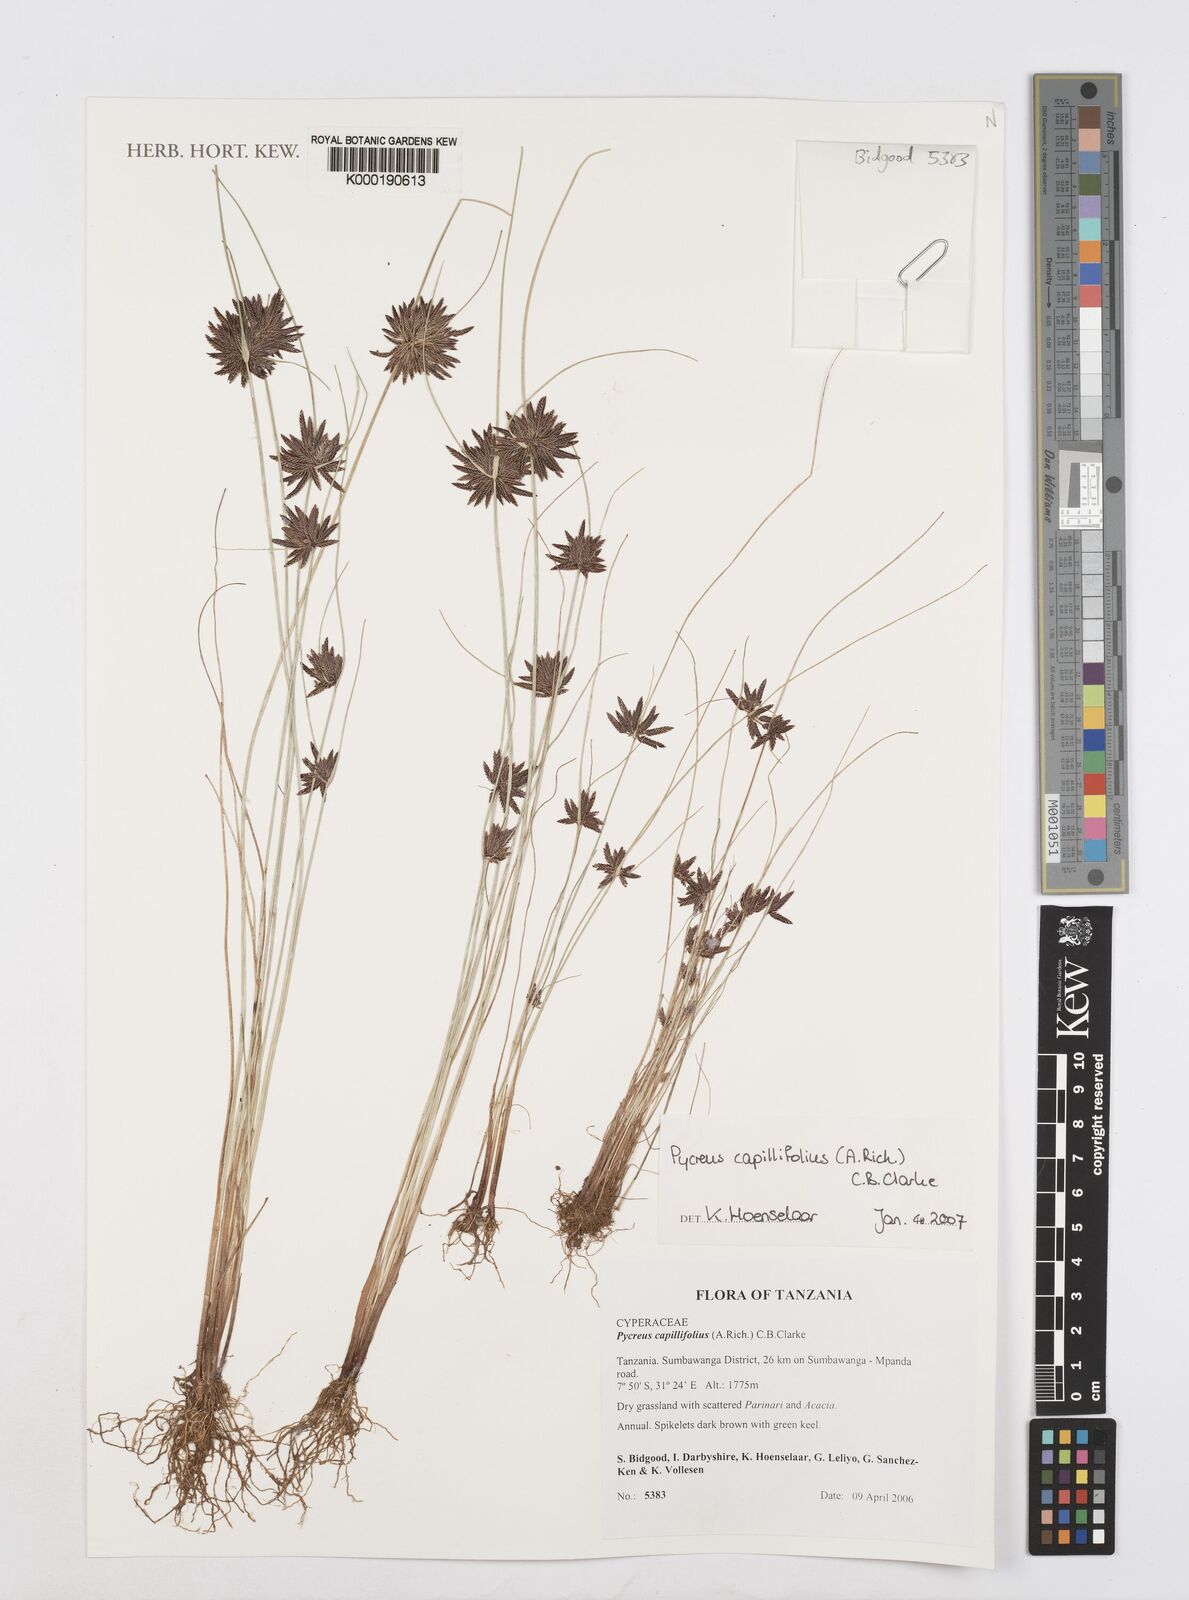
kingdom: Plantae
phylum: Tracheophyta
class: Liliopsida
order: Poales
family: Cyperaceae
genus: Cyperus
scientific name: Cyperus capillifolius
